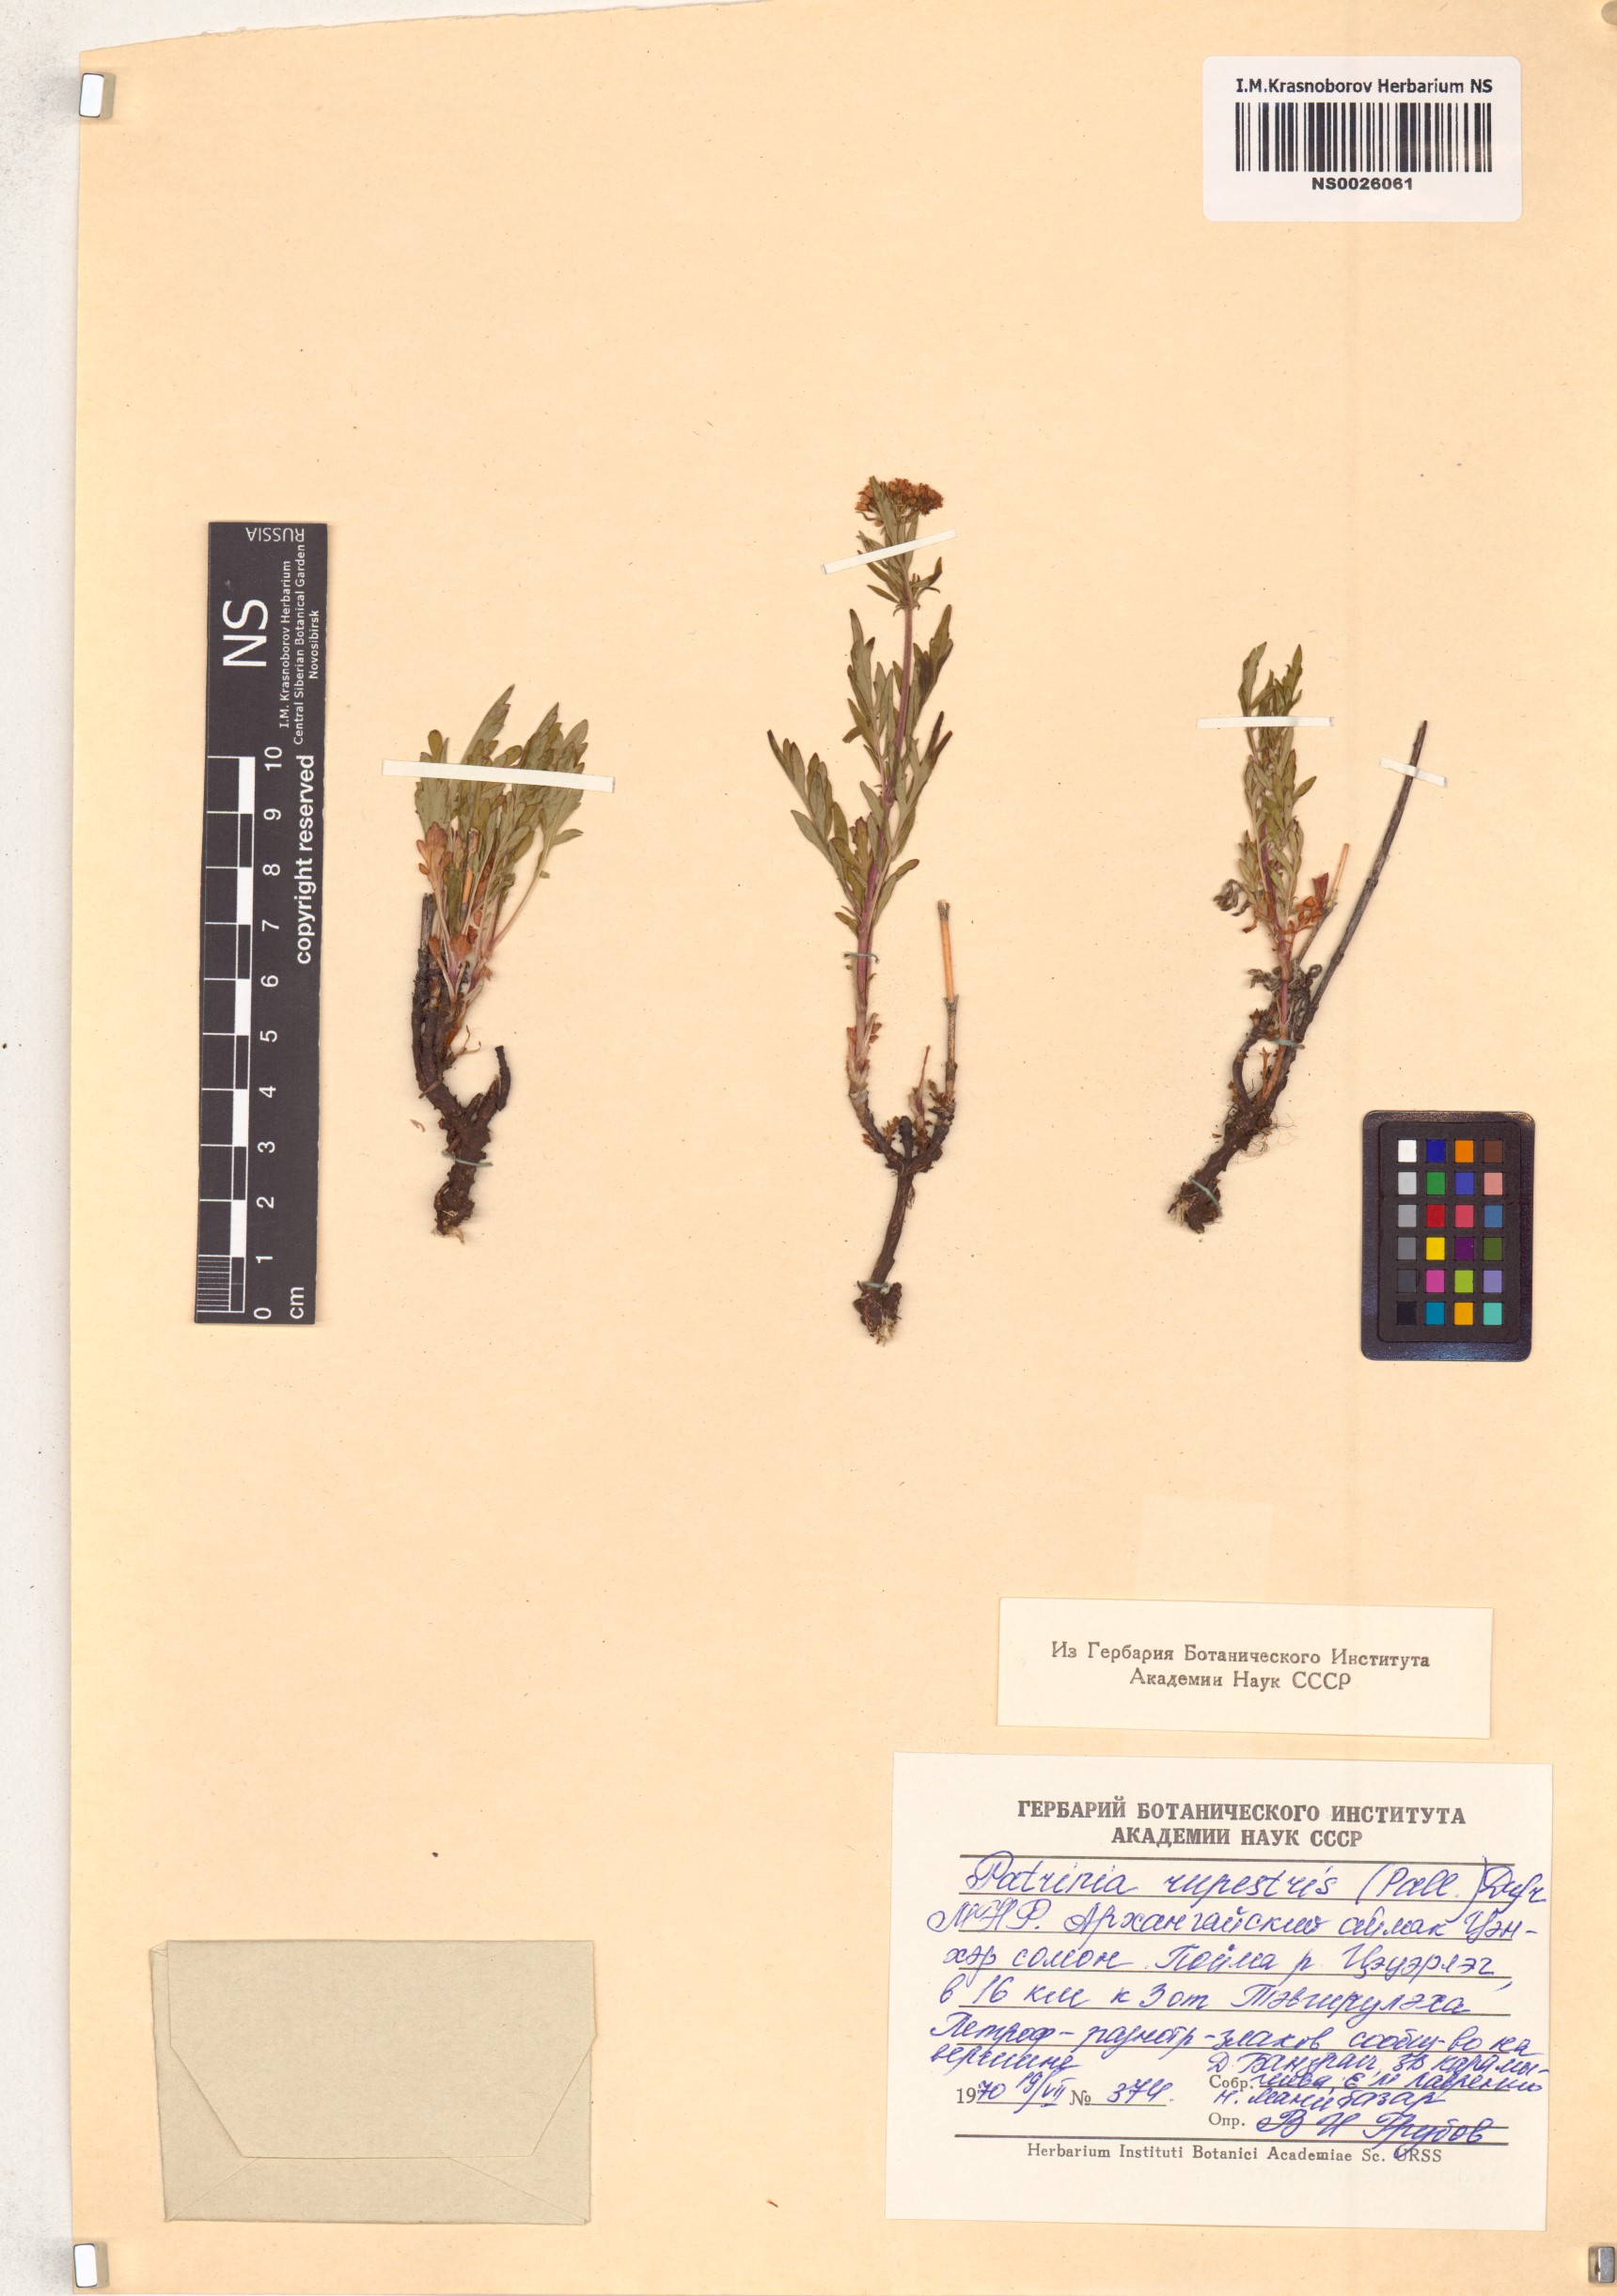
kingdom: Plantae
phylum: Tracheophyta
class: Magnoliopsida
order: Dipsacales
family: Caprifoliaceae
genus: Patrinia
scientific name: Patrinia rupestris
